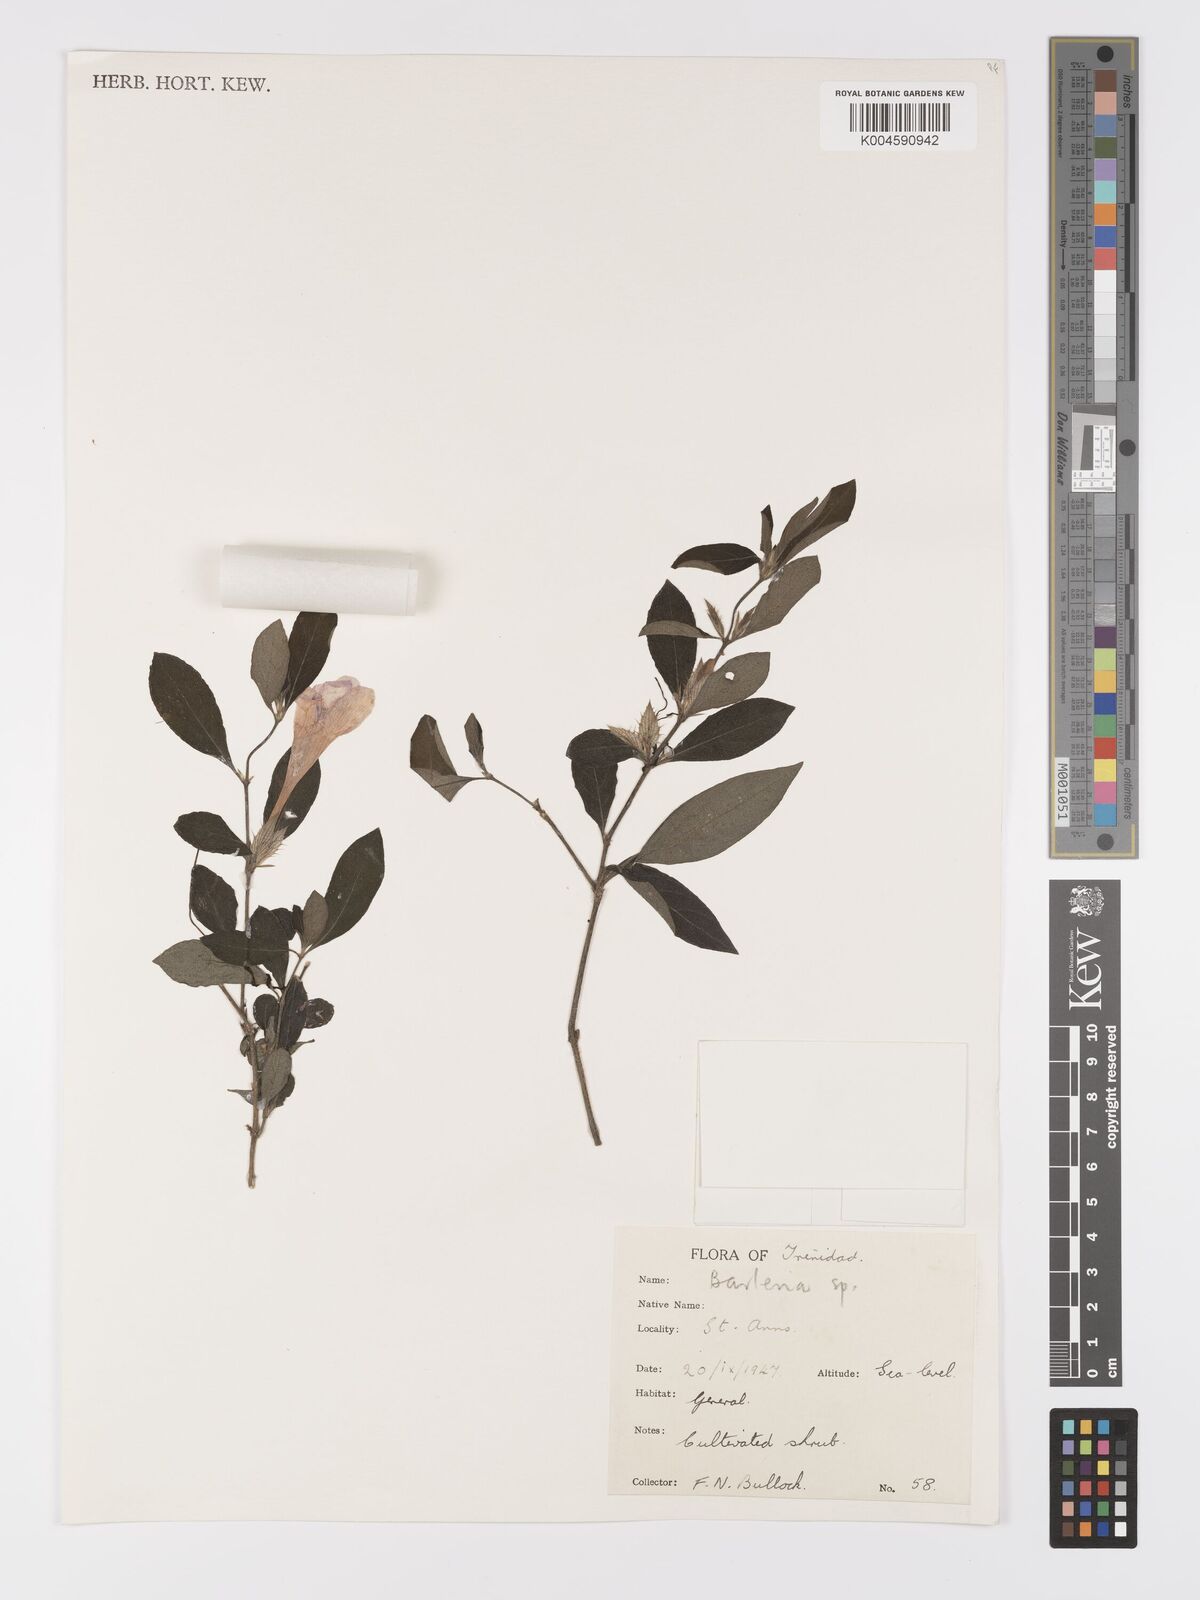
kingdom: Plantae
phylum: Tracheophyta
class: Magnoliopsida
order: Lamiales
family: Acanthaceae
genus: Barleria
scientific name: Barleria cristata
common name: Crested philippine violet
